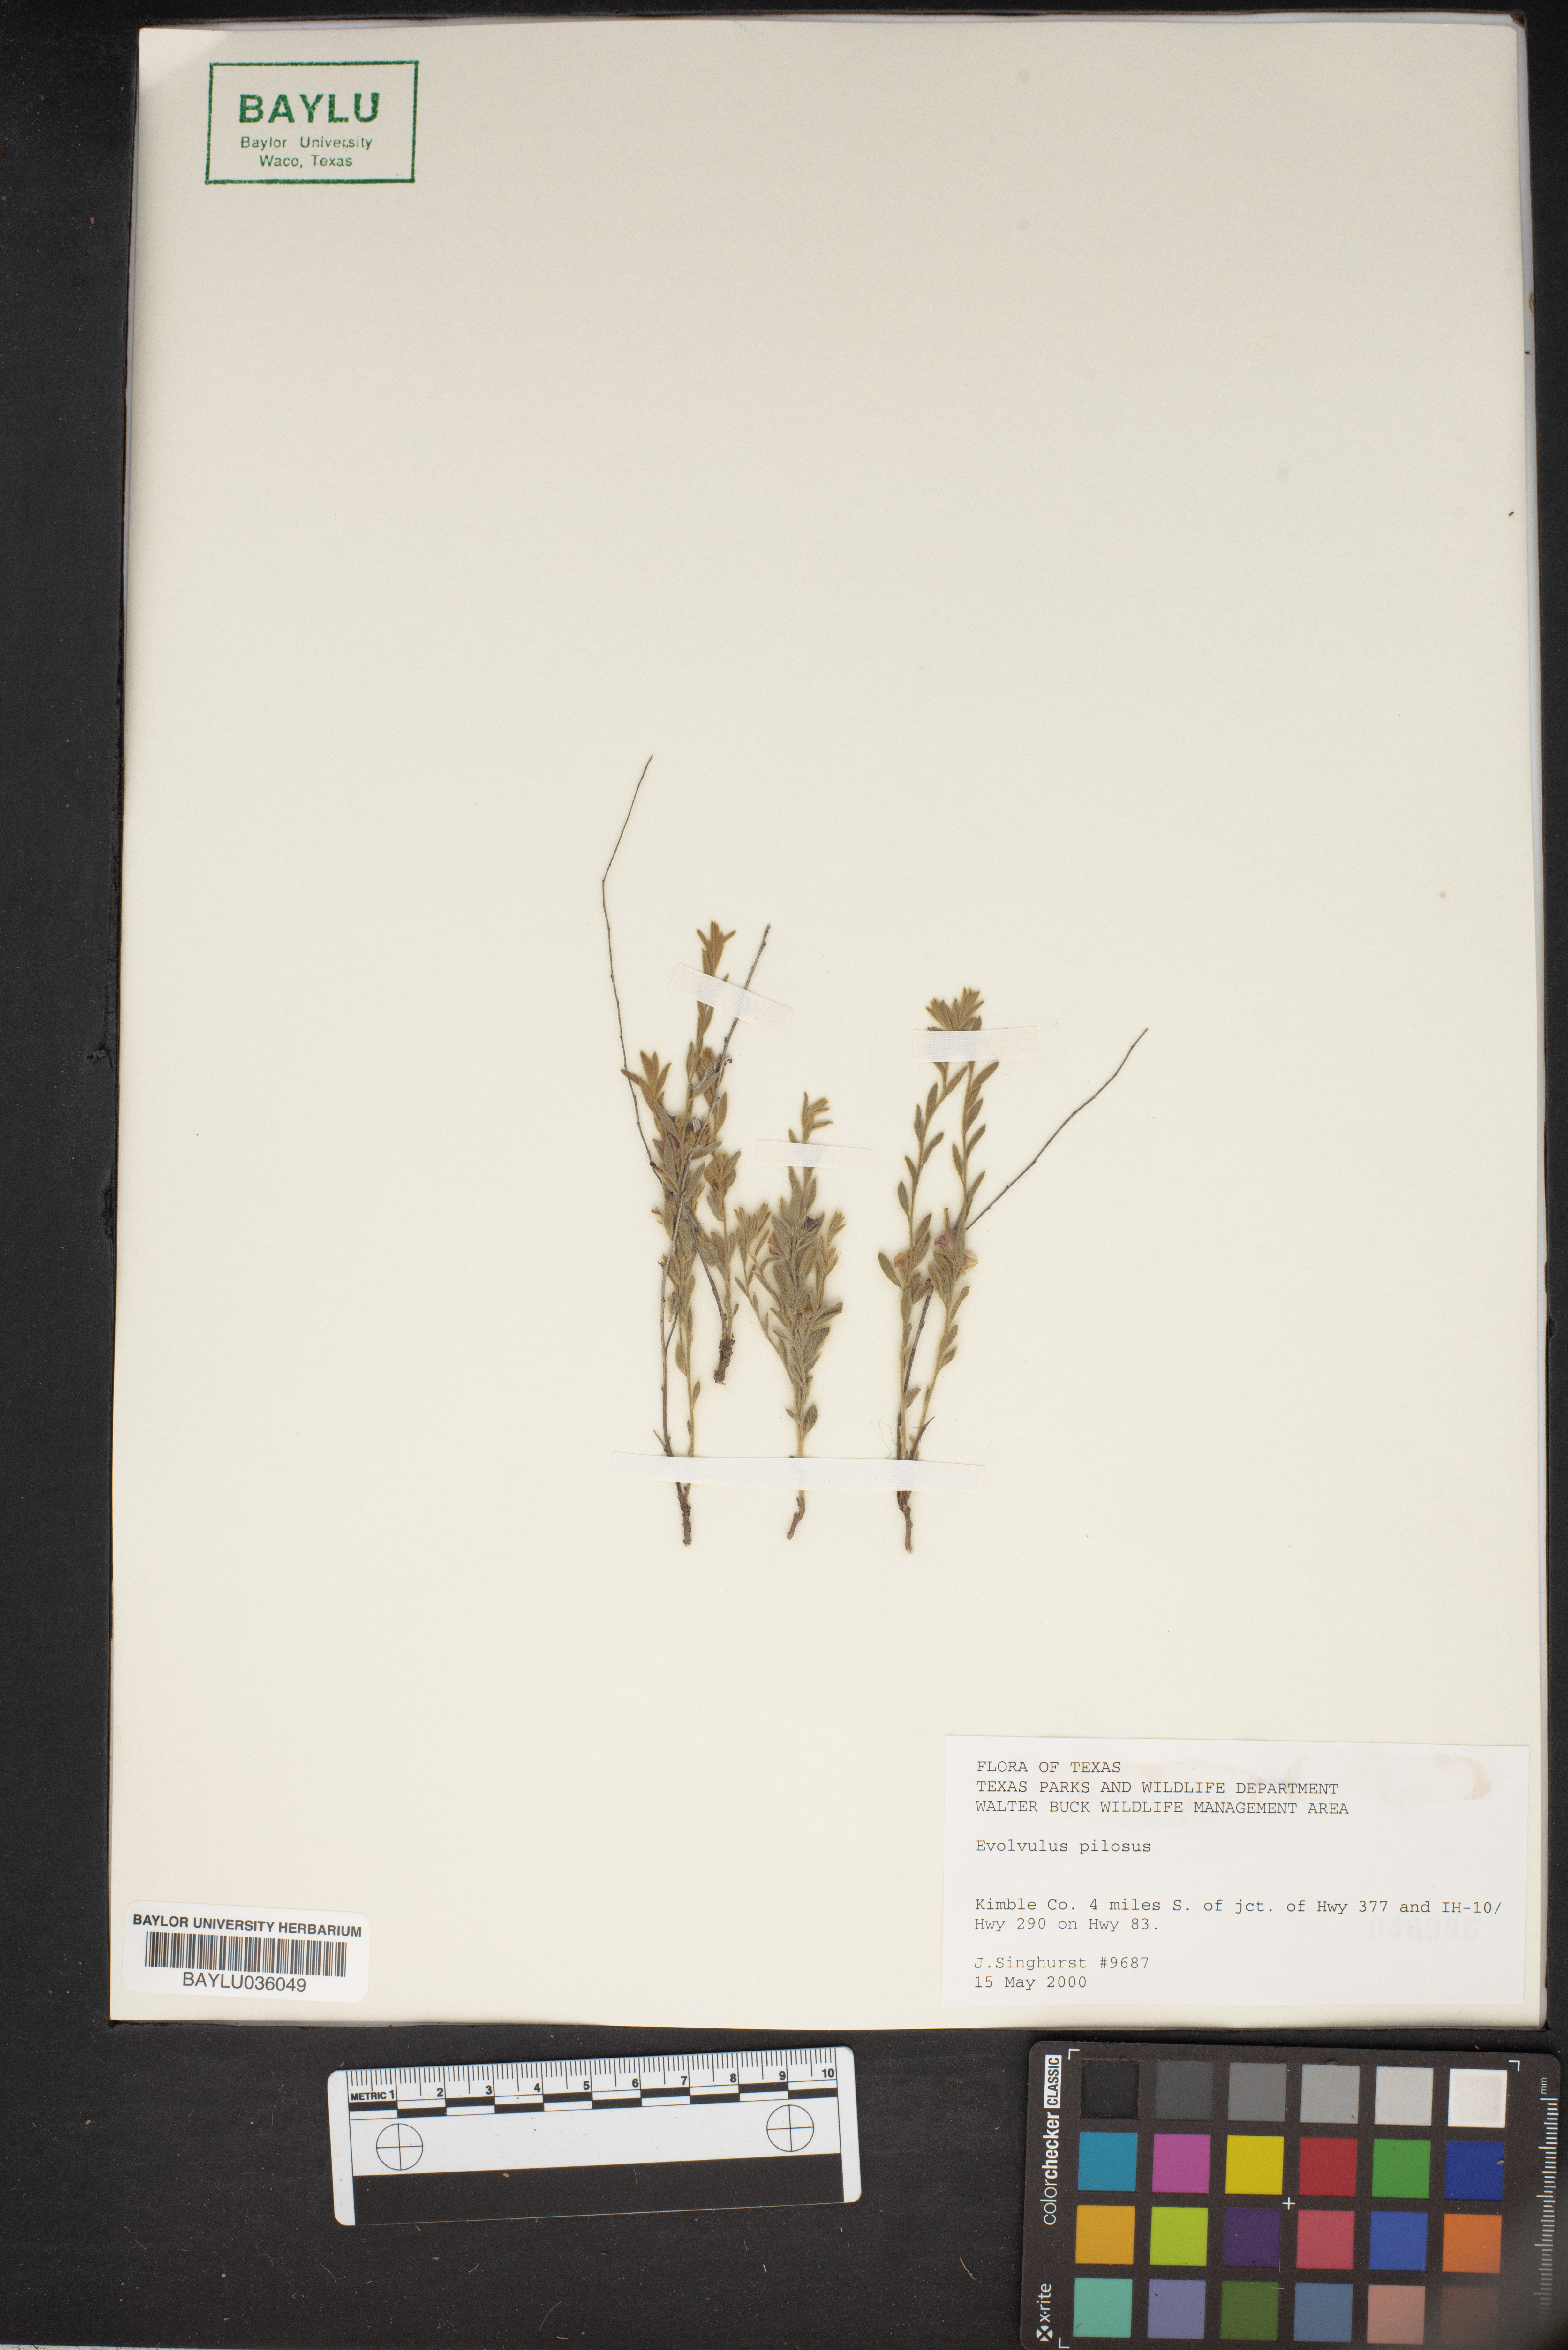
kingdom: Plantae
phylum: Tracheophyta
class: Magnoliopsida
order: Solanales
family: Convolvulaceae
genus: Evolvulus
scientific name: Evolvulus nuttallianus
